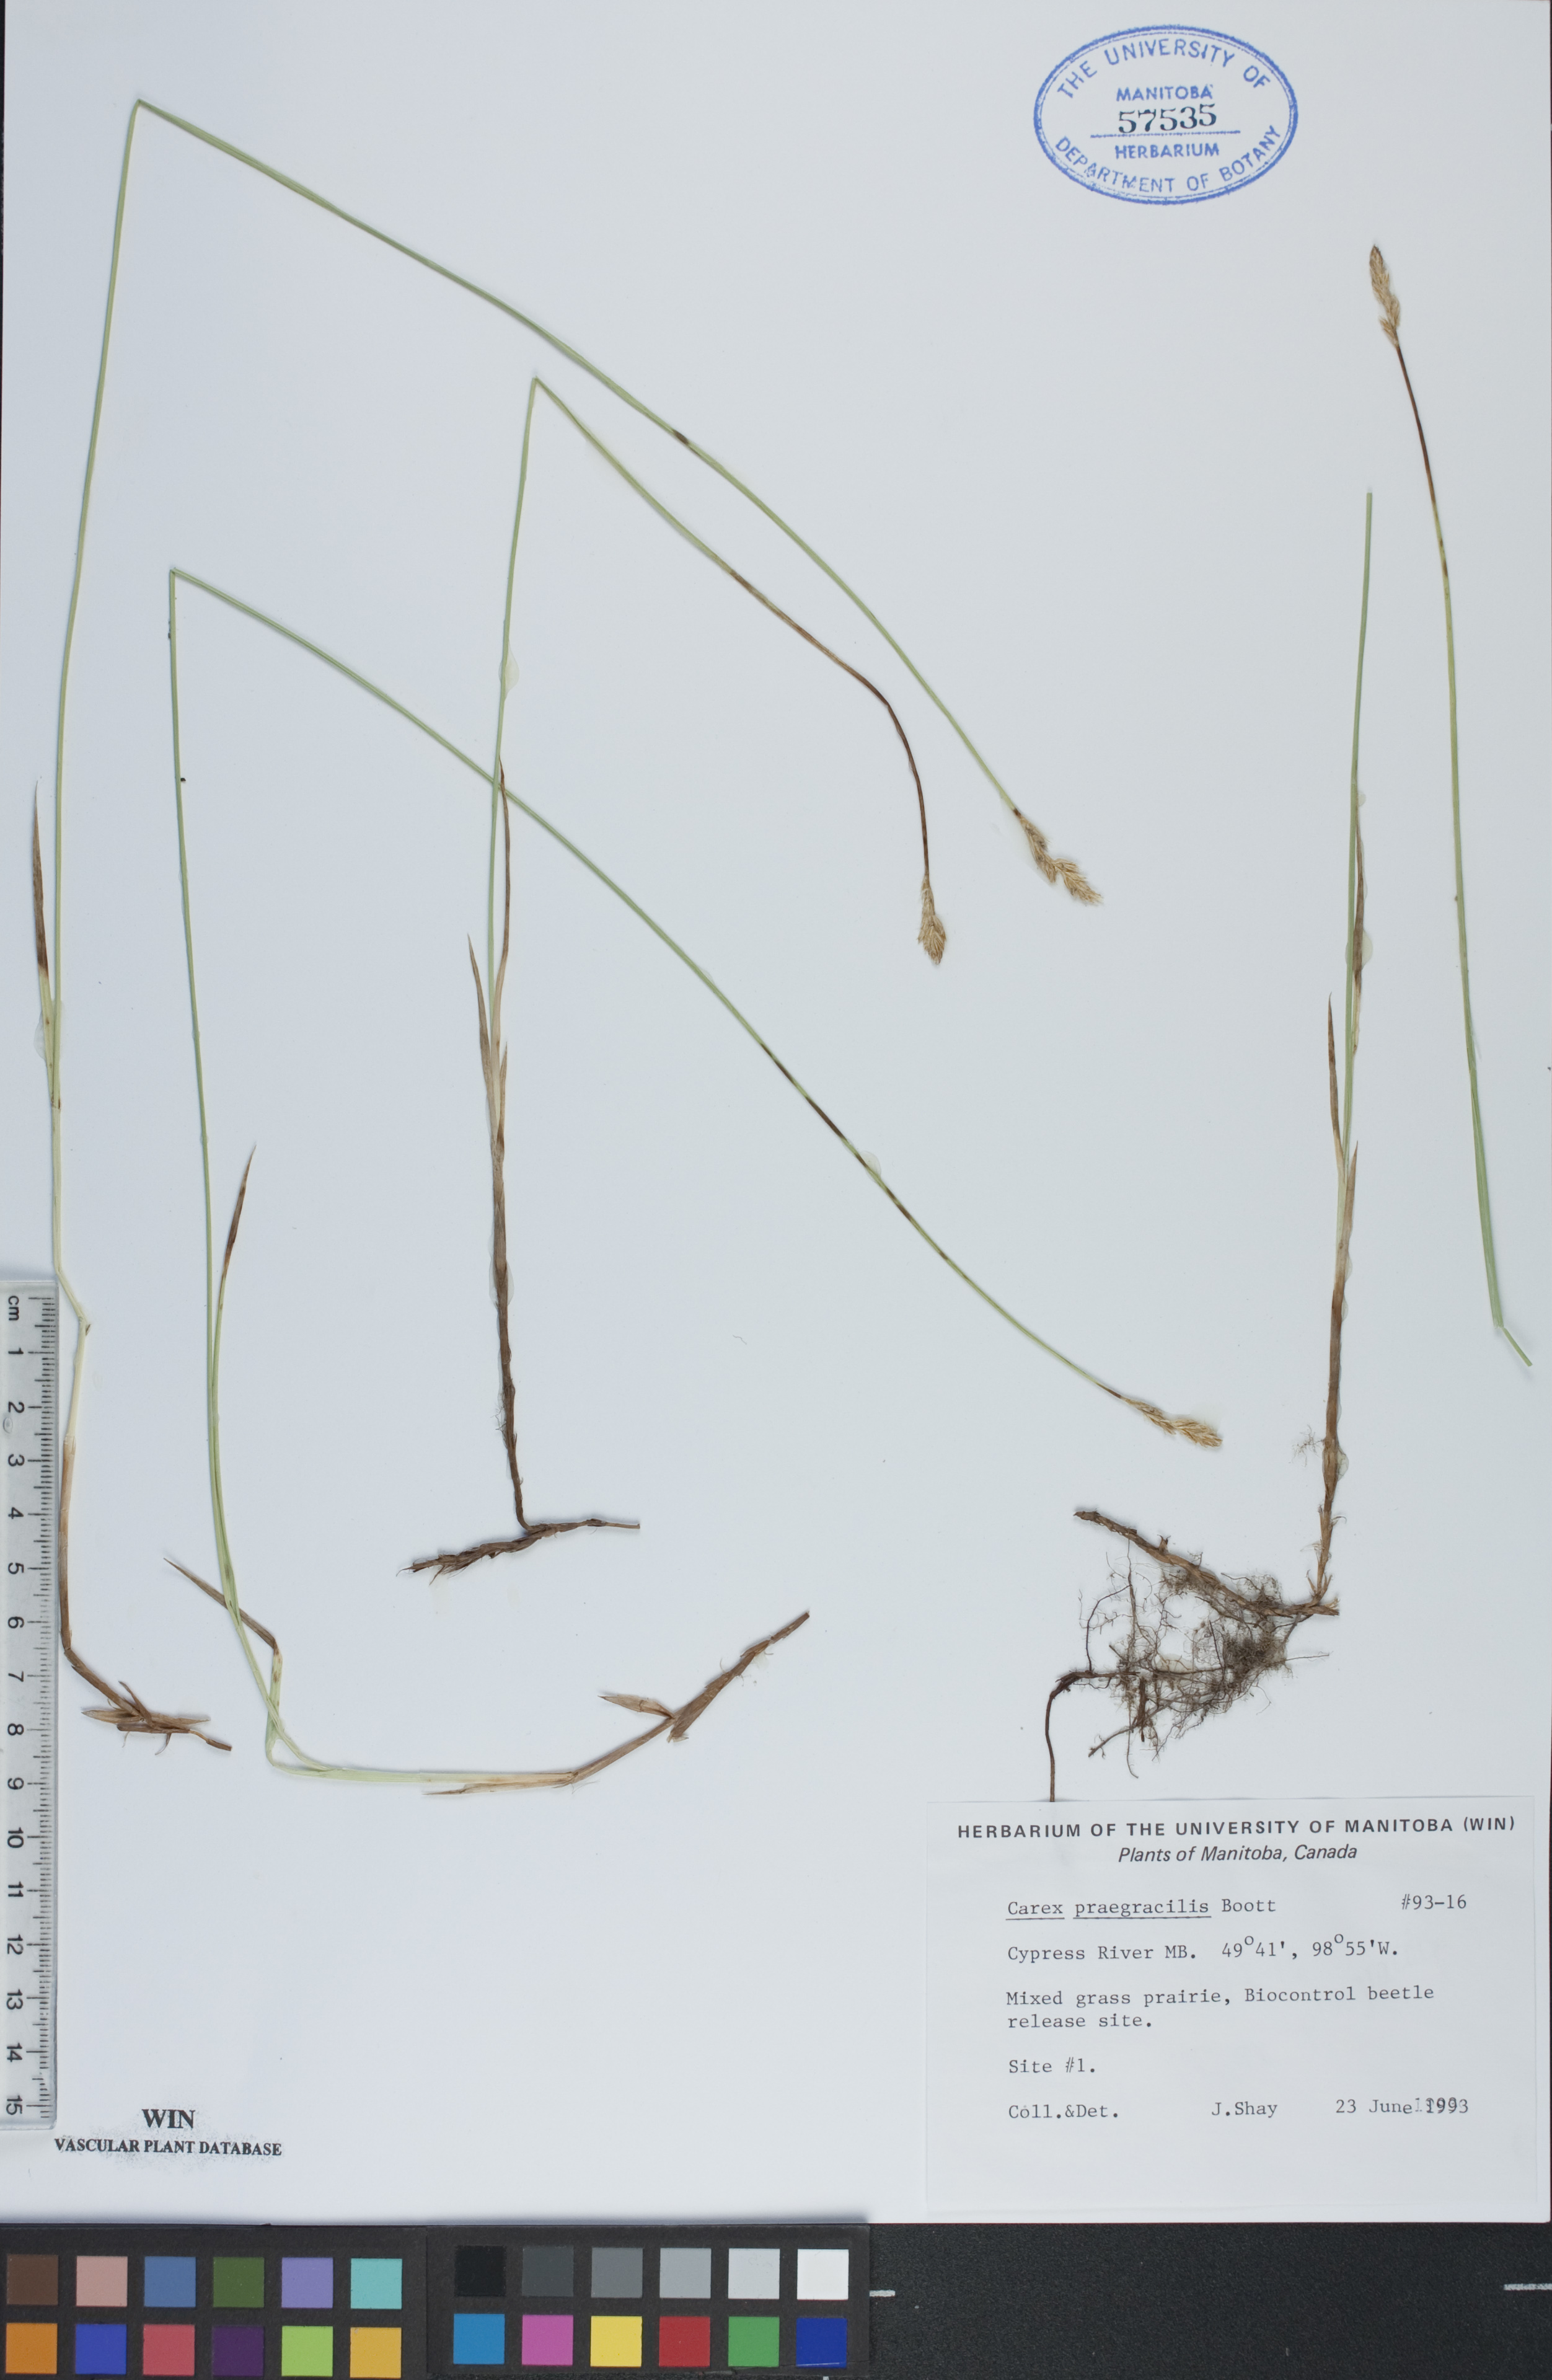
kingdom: Plantae
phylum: Tracheophyta
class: Liliopsida
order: Poales
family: Cyperaceae
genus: Carex
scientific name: Carex praegracilis
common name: Black creeper sedge
